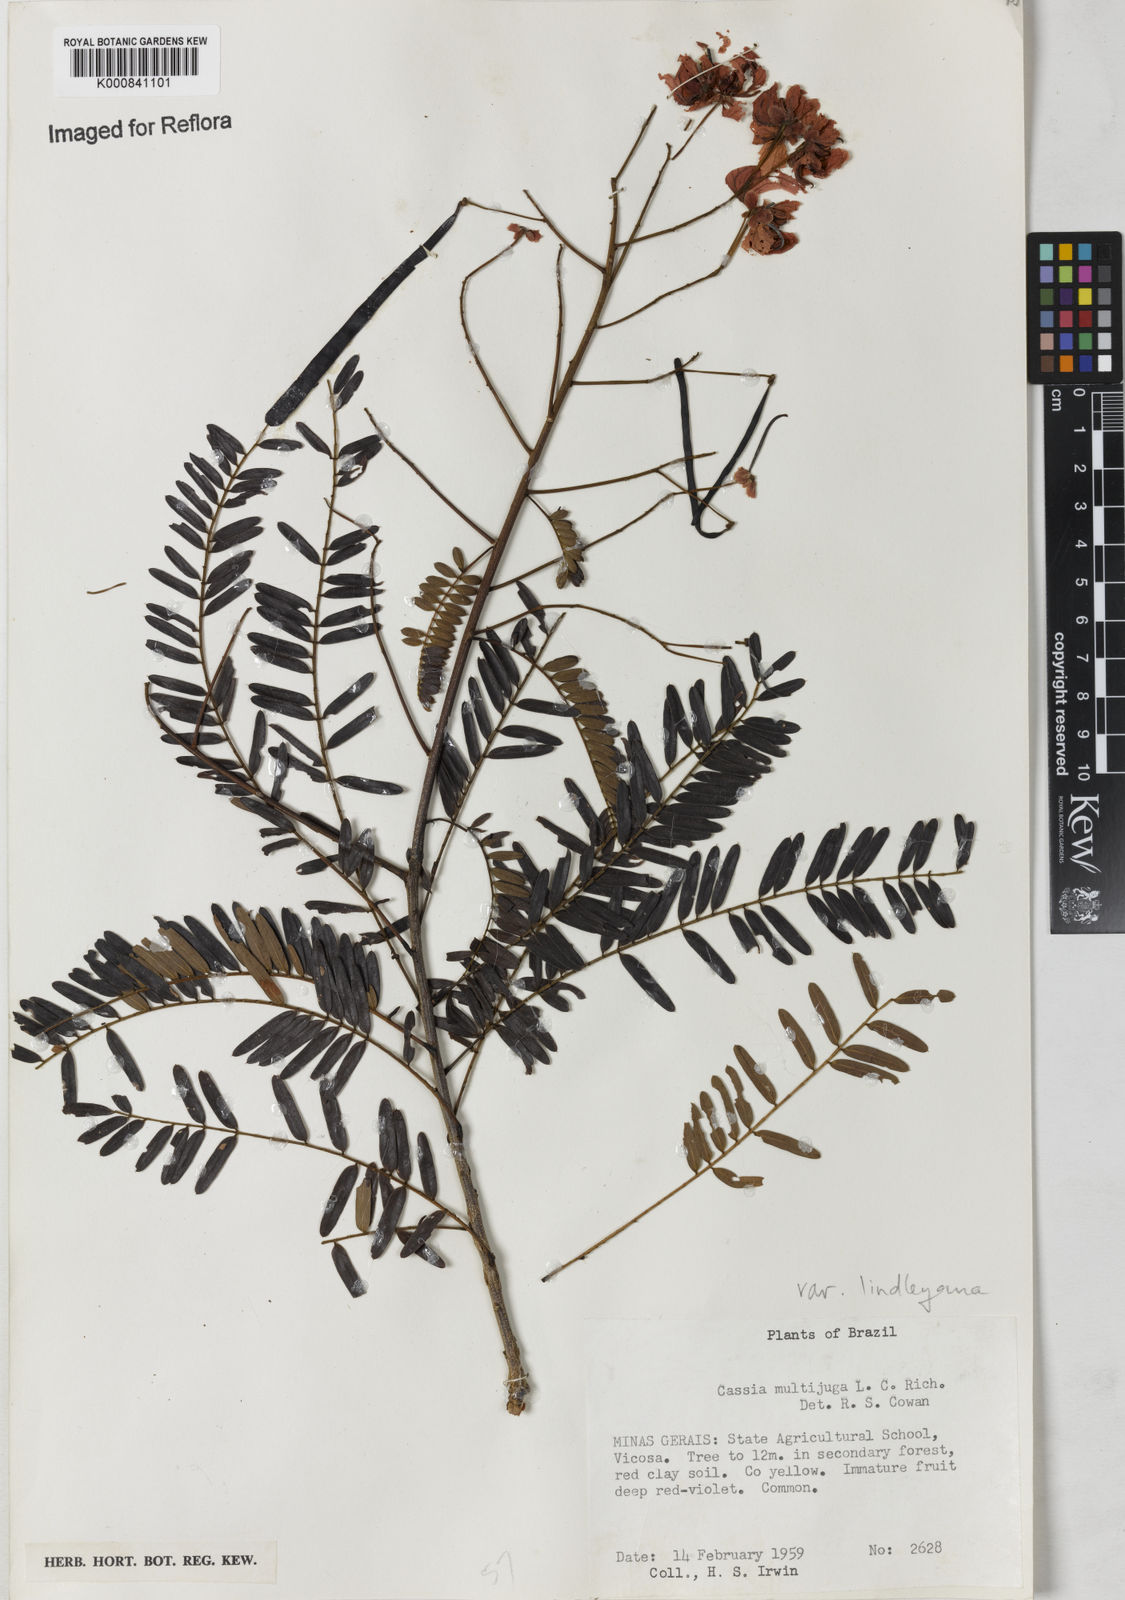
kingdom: Plantae
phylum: Tracheophyta
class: Magnoliopsida
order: Fabales
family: Fabaceae
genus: Senna
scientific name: Senna multijuga
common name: False sicklepod
